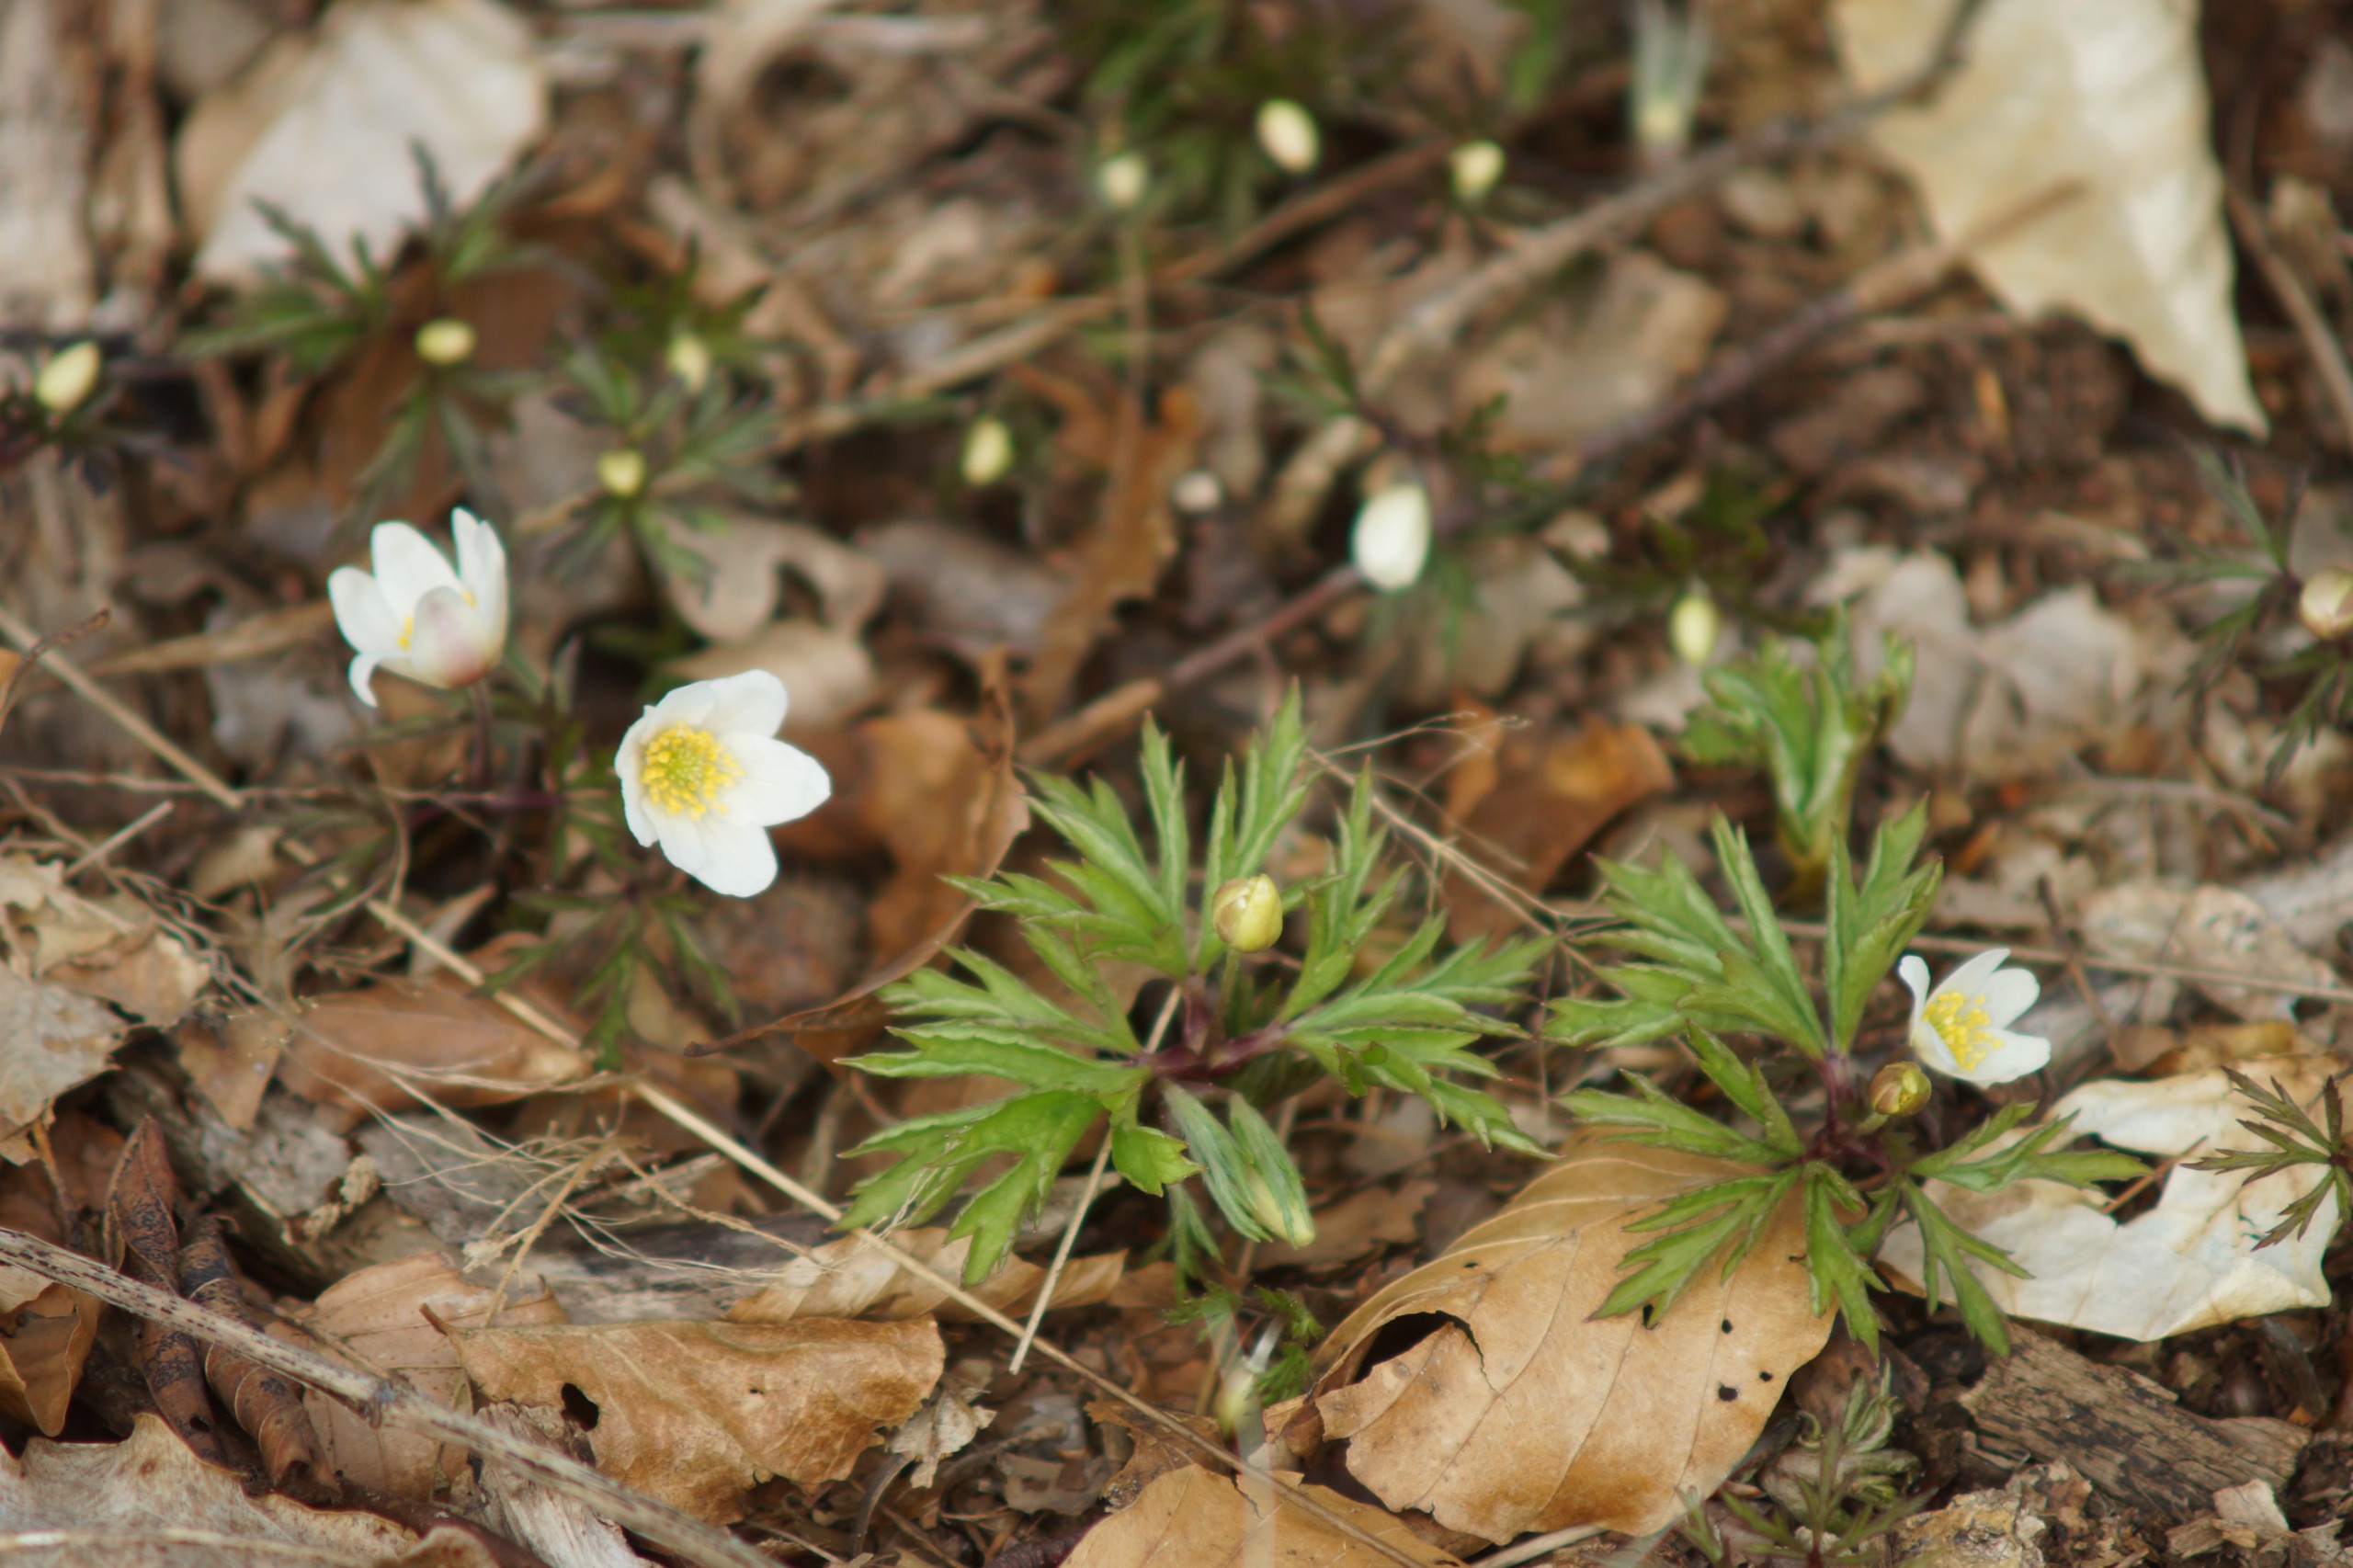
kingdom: Plantae
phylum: Tracheophyta
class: Magnoliopsida
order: Ranunculales
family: Ranunculaceae
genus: Anemone
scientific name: Anemone nemorosa
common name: Hvid anemone
